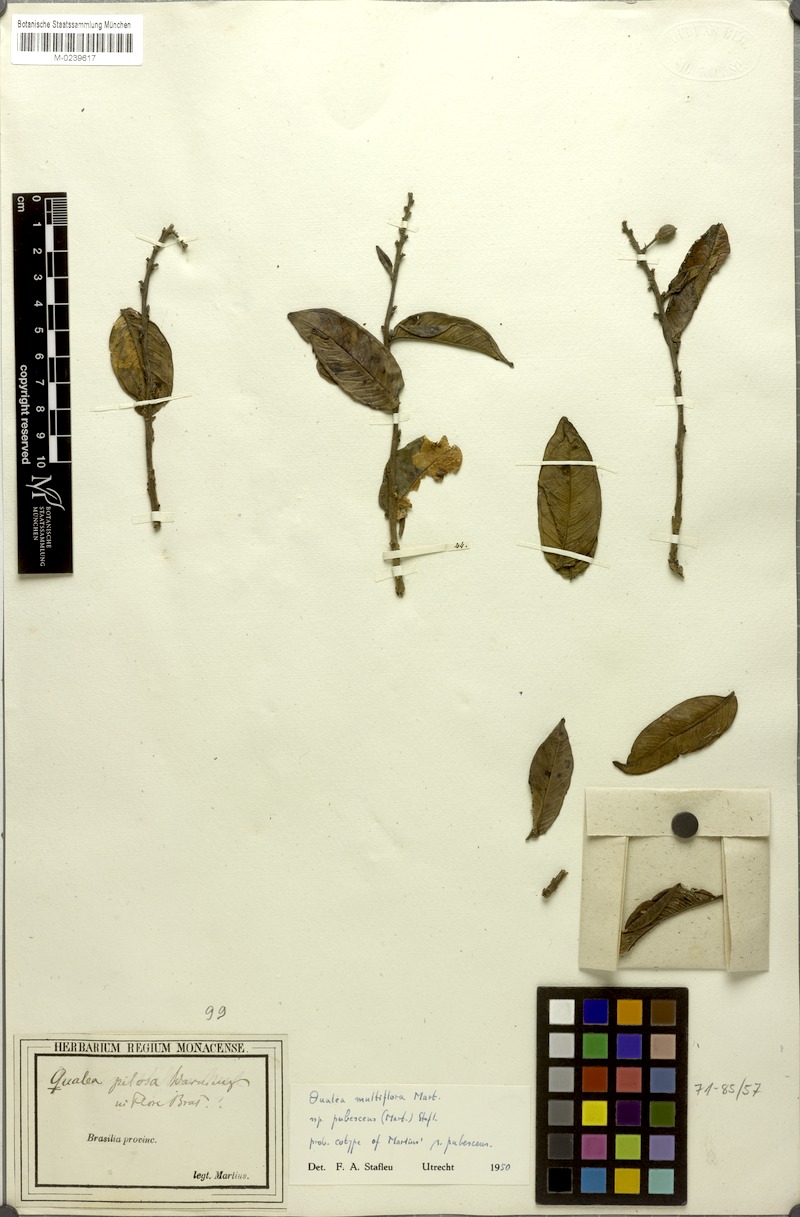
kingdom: Plantae
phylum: Tracheophyta
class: Magnoliopsida
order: Myrtales
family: Vochysiaceae
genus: Qualea
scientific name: Qualea multiflora
